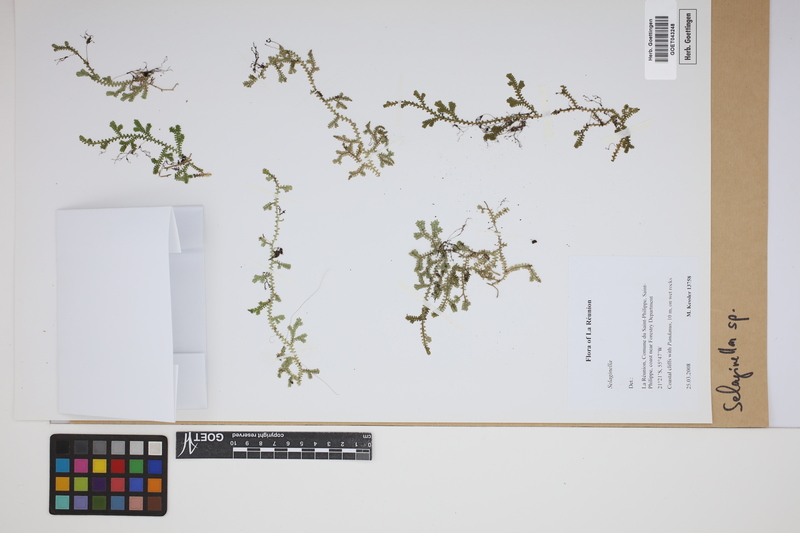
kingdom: Plantae
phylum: Tracheophyta
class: Lycopodiopsida
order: Selaginellales
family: Selaginellaceae
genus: Selaginella
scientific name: Selaginella
